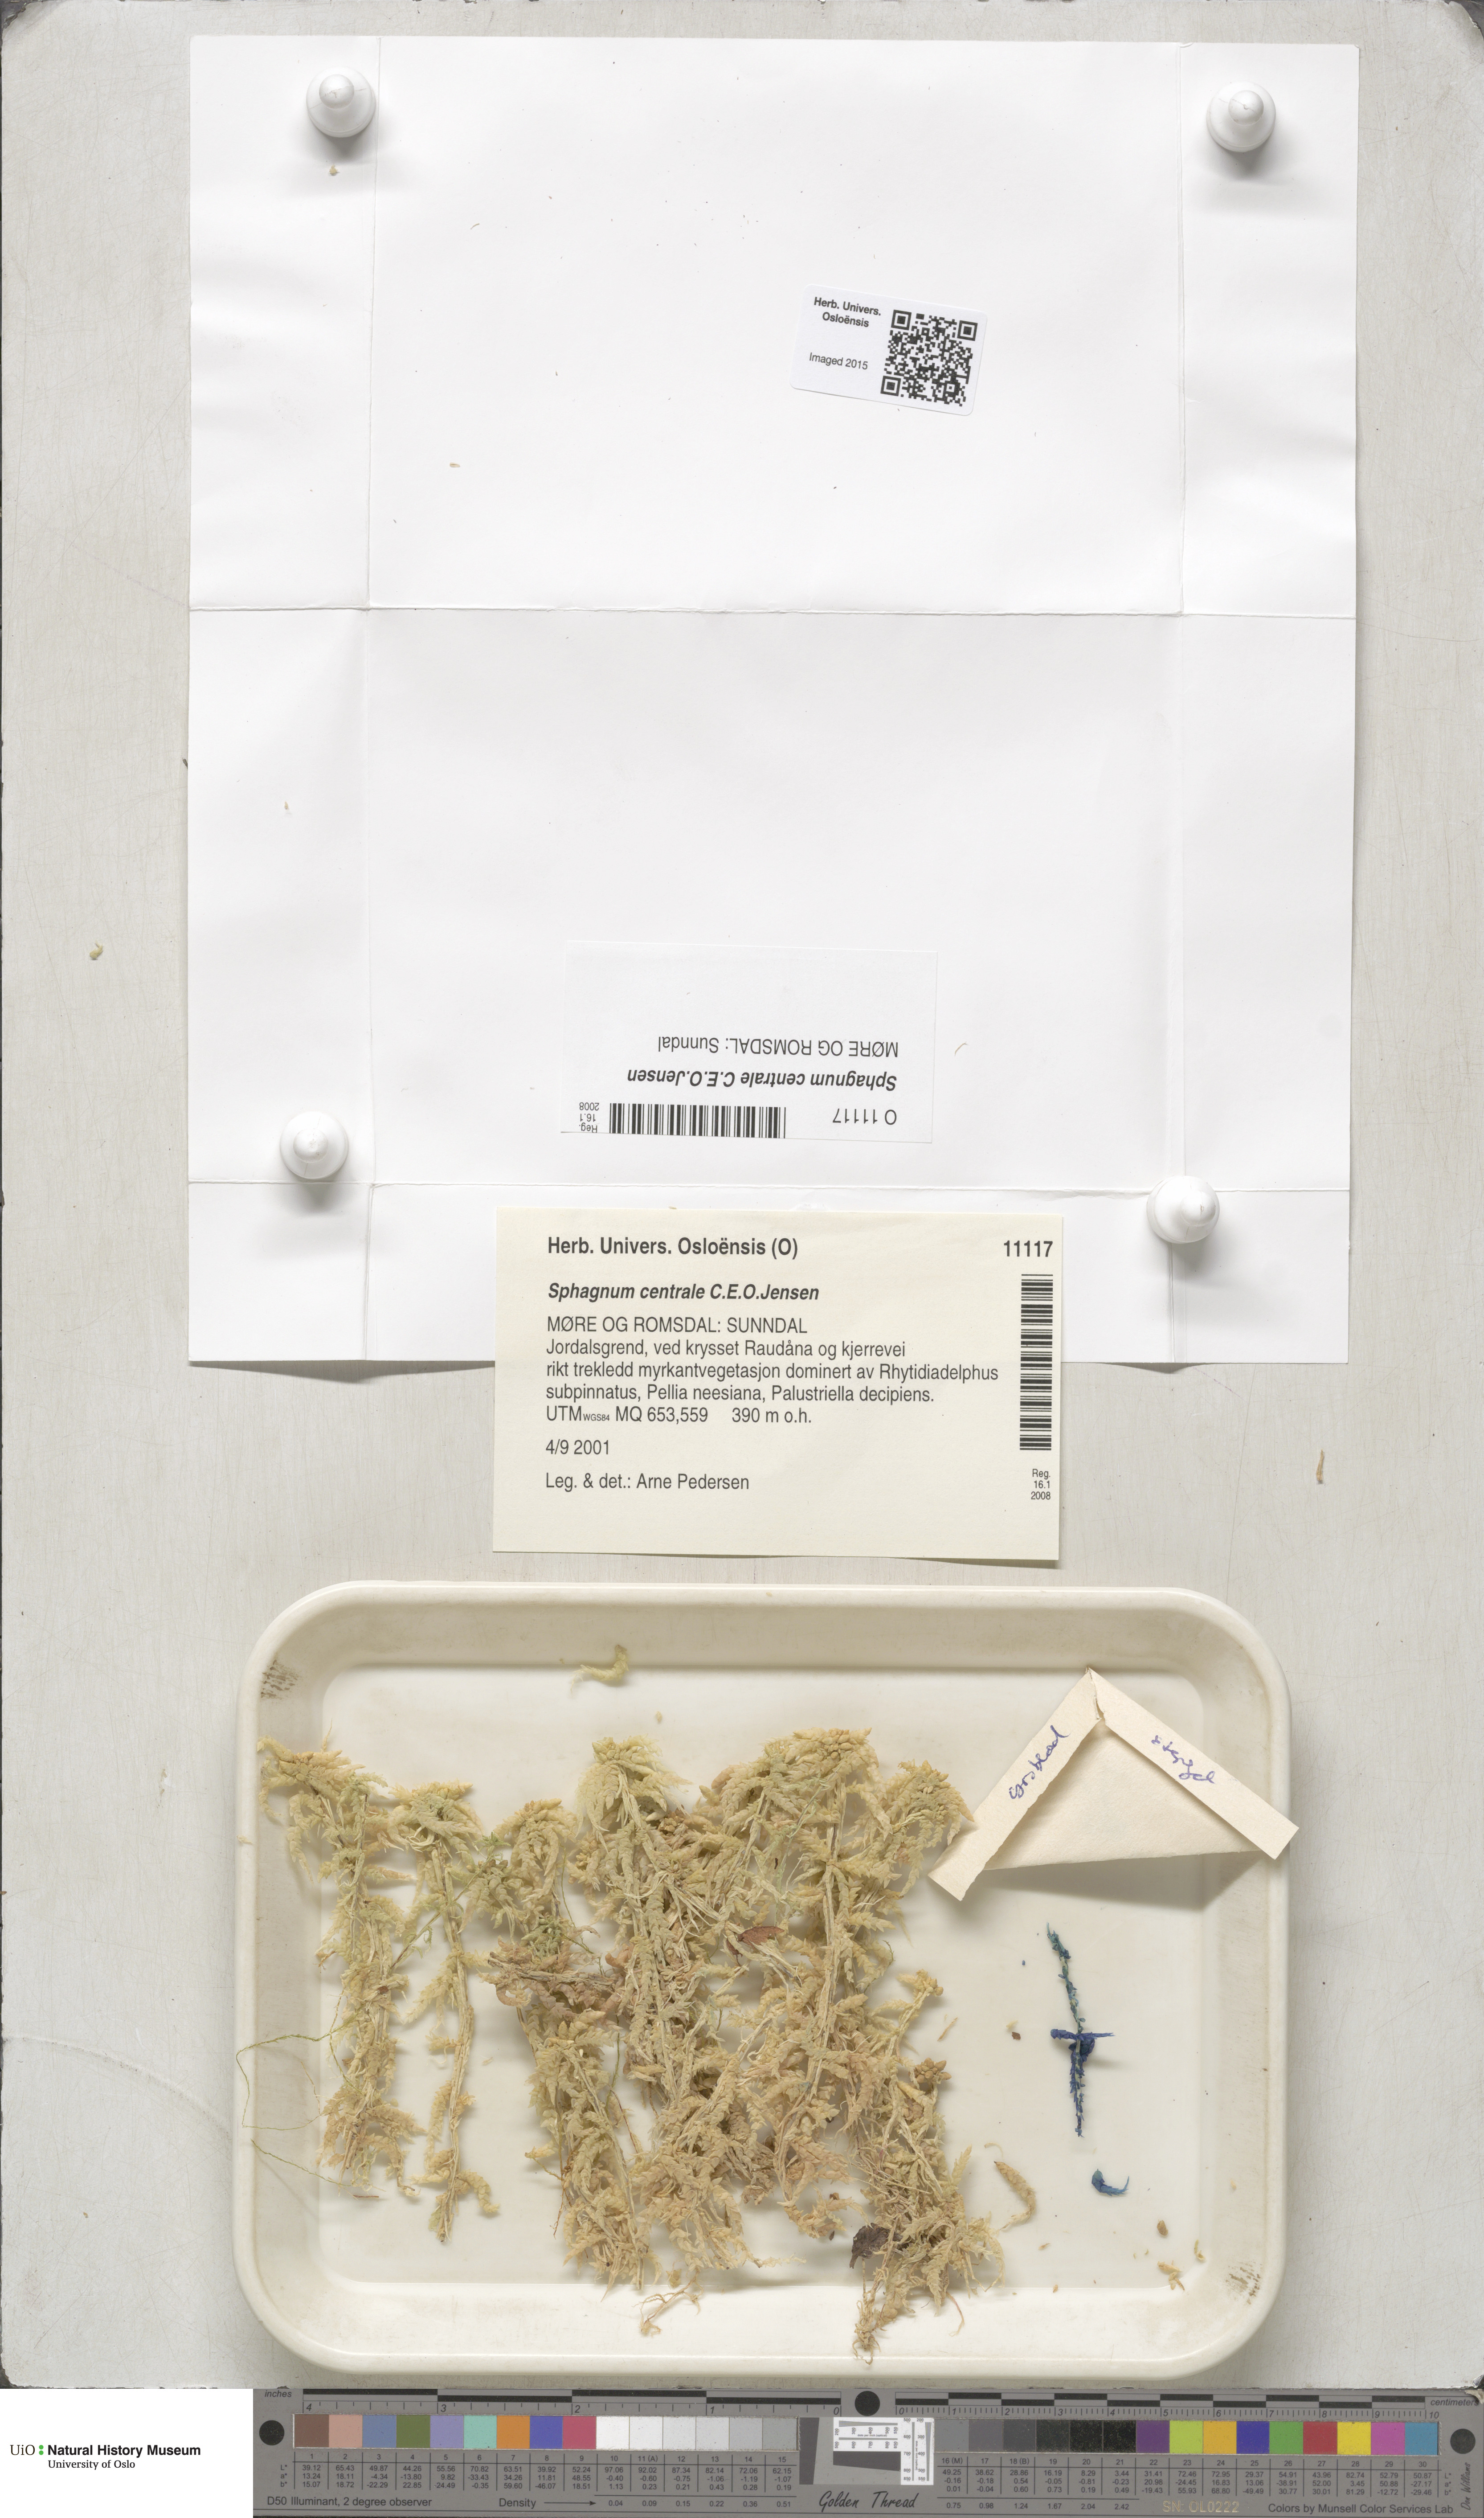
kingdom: Plantae
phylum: Bryophyta
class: Sphagnopsida
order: Sphagnales
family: Sphagnaceae
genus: Sphagnum
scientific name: Sphagnum centrale
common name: Central peat moss
